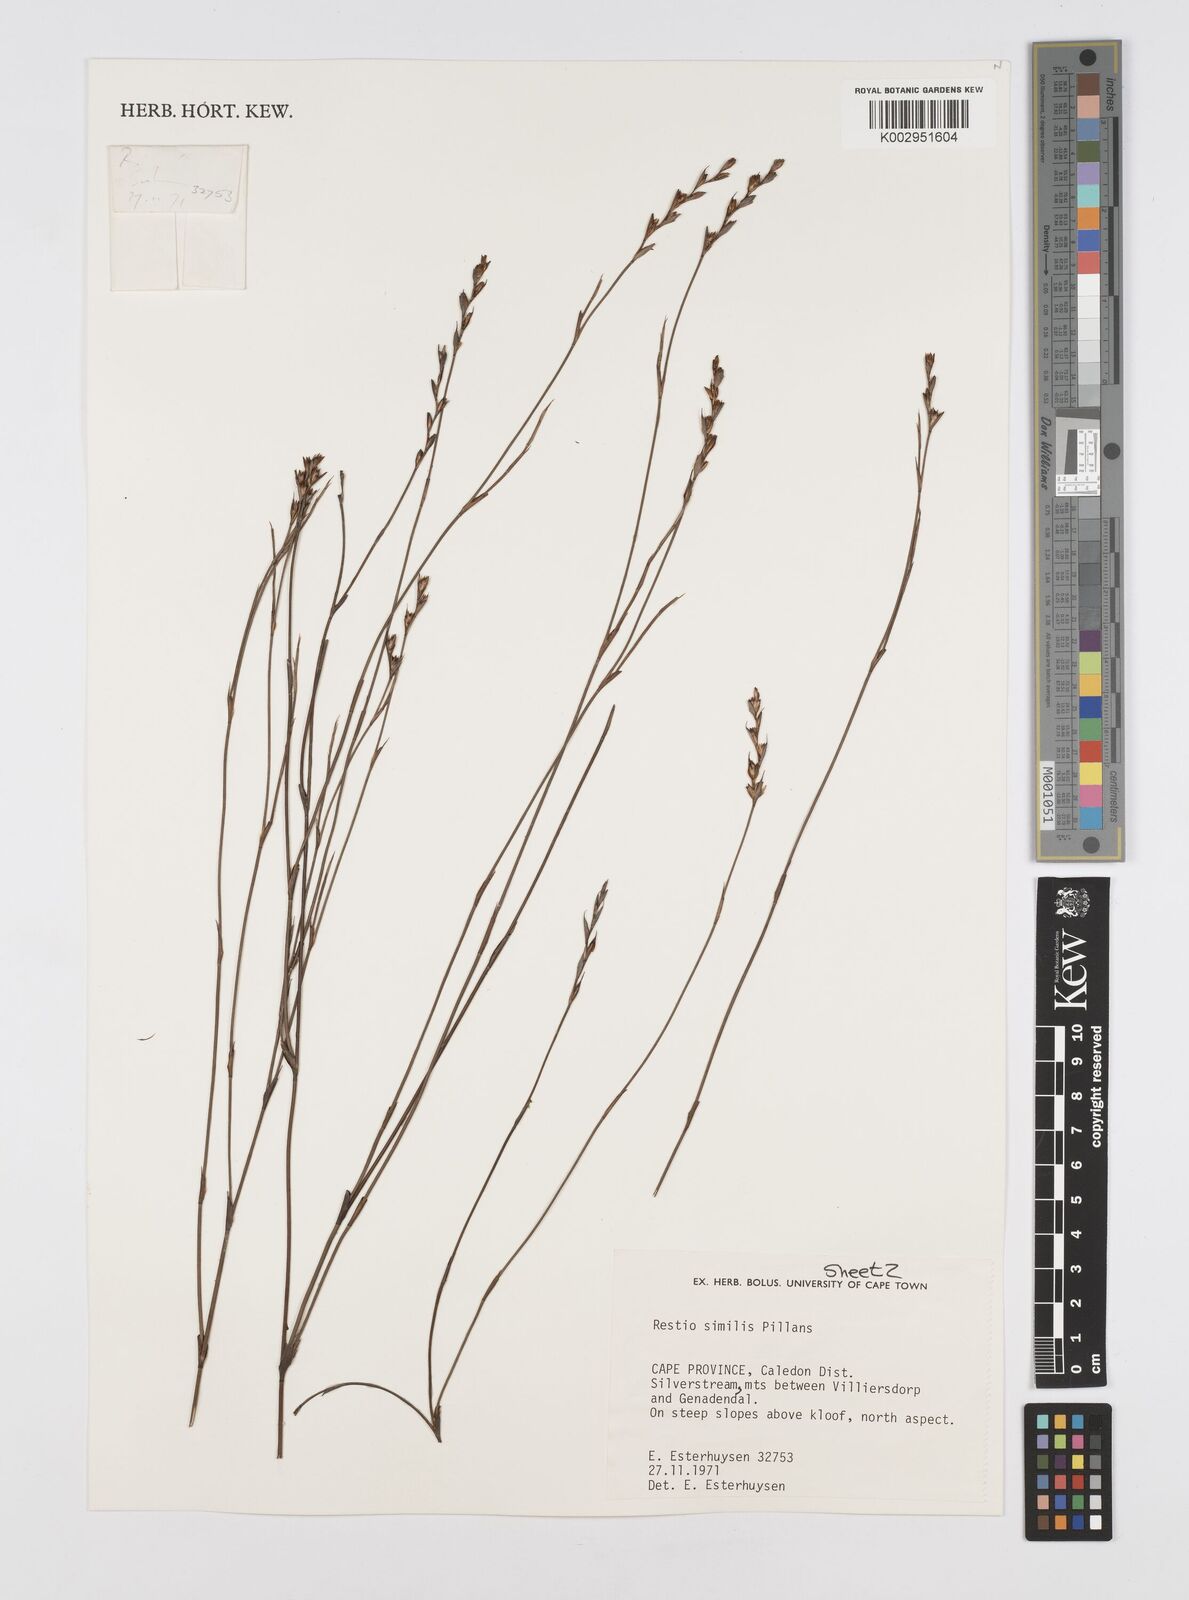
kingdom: Plantae
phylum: Tracheophyta
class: Liliopsida
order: Poales
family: Restionaceae
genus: Restio
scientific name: Restio similis
